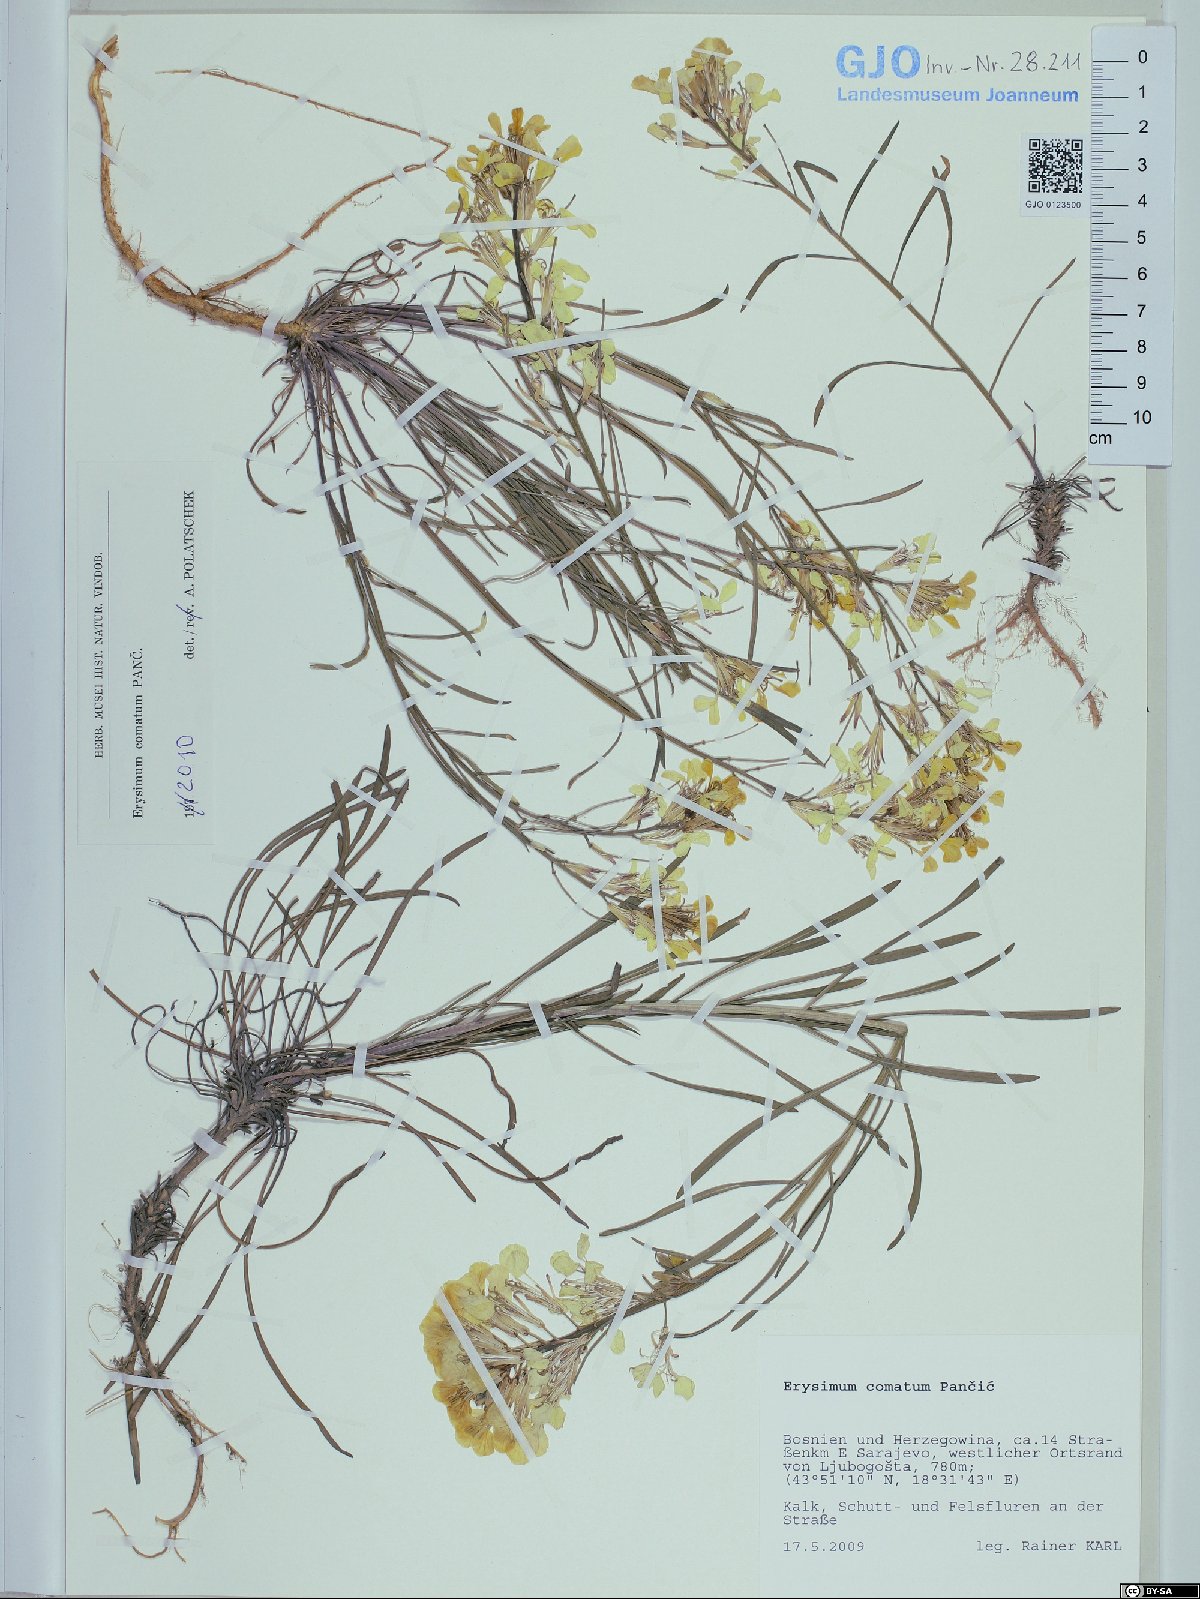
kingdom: Plantae
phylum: Tracheophyta
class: Magnoliopsida
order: Brassicales
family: Brassicaceae
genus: Erysimum
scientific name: Erysimum comatum
